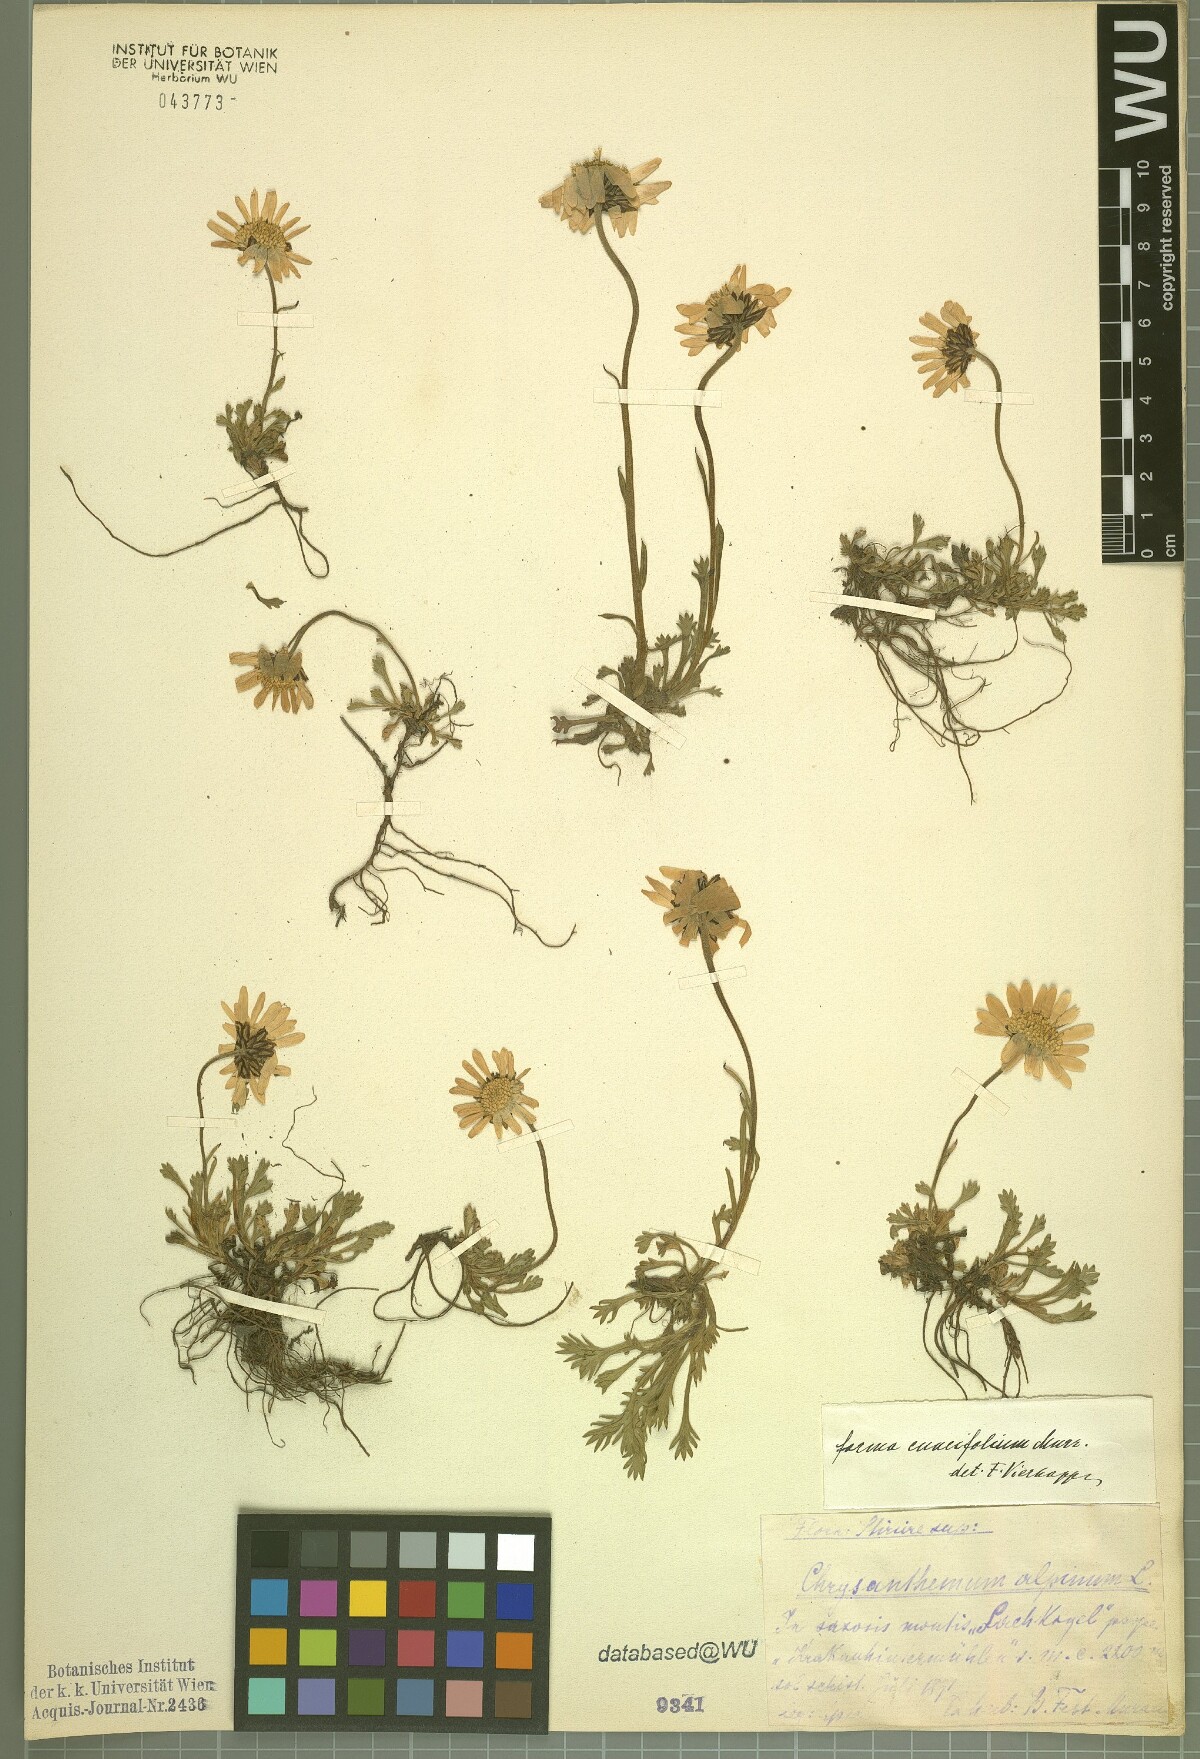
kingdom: Plantae
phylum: Tracheophyta
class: Magnoliopsida
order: Asterales
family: Asteraceae
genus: Leucanthemopsis
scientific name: Leucanthemopsis alpina
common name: Alpine moon daisy
